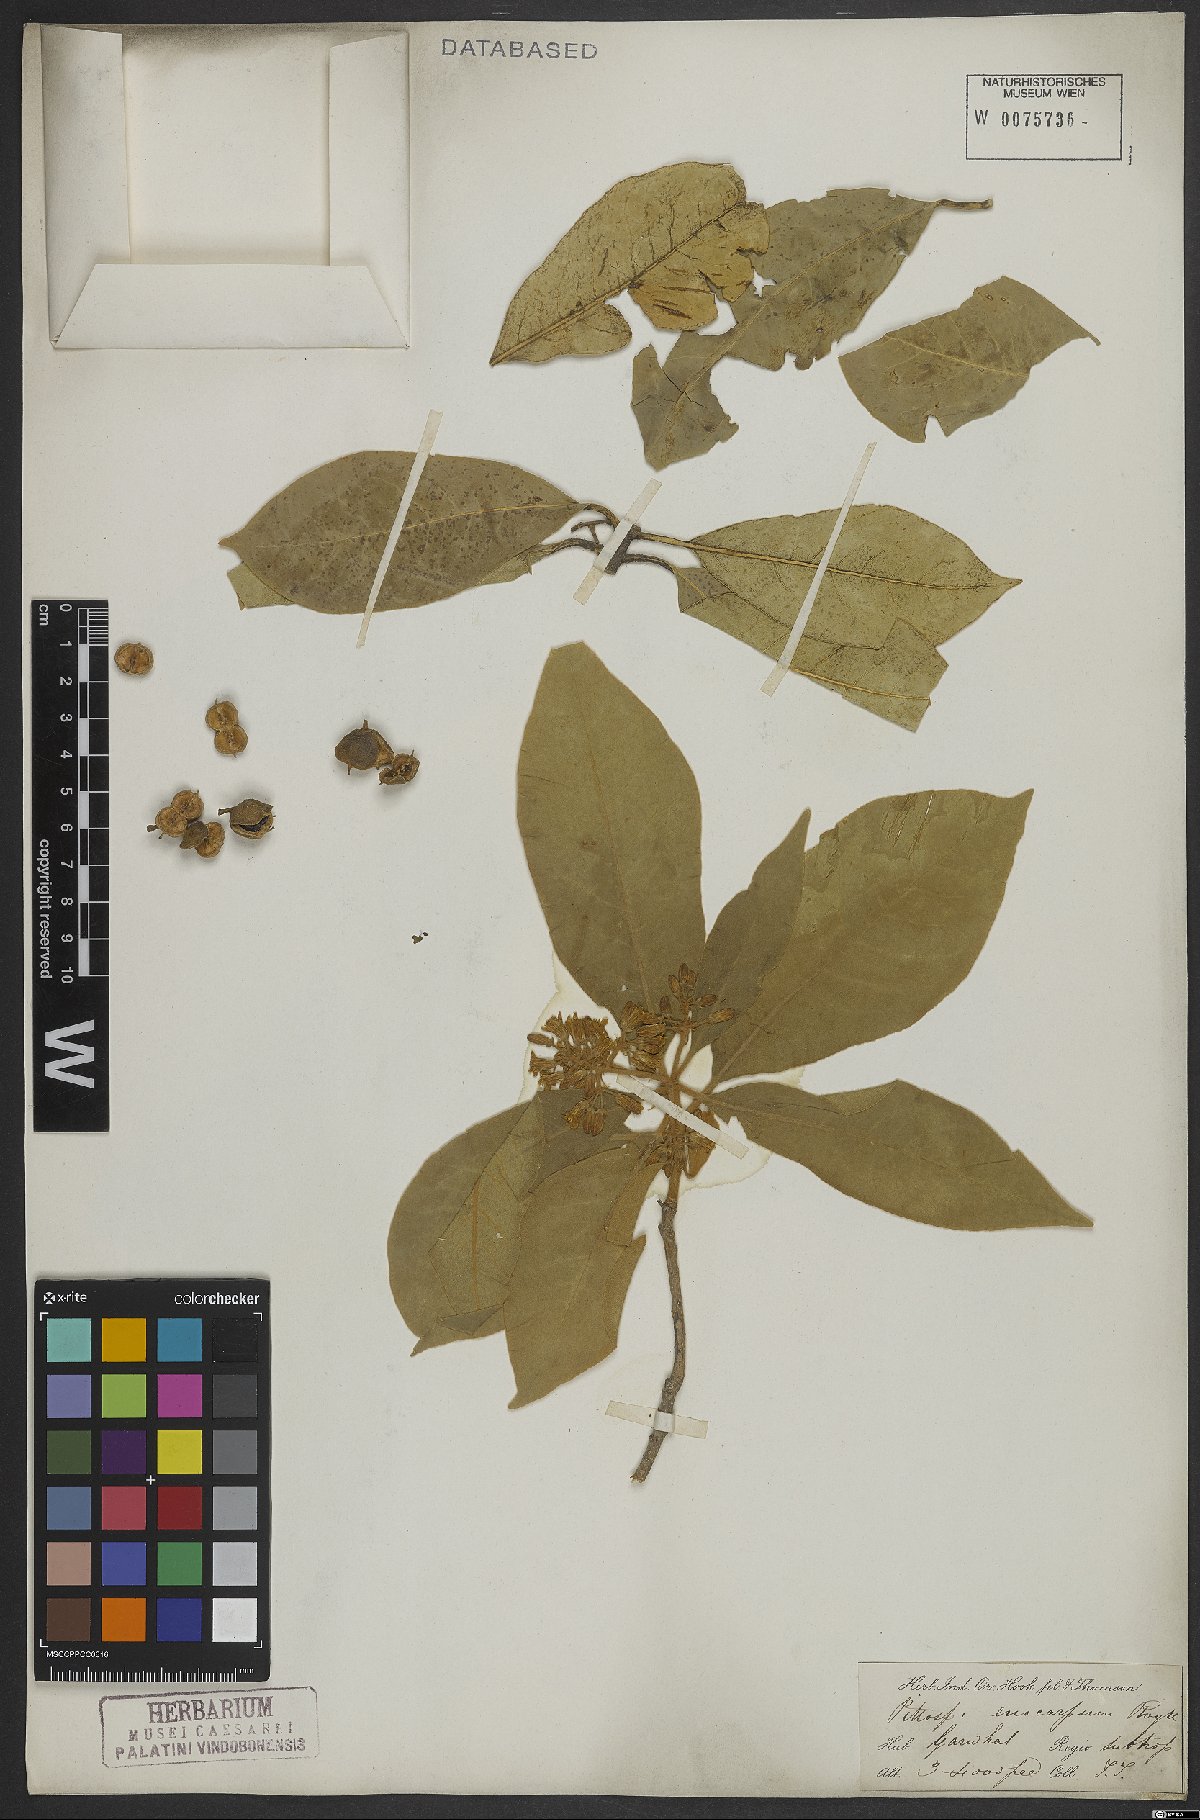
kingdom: Plantae
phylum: Tracheophyta
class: Magnoliopsida
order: Apiales
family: Pittosporaceae
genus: Pittosporum
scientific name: Pittosporum eriocarpum
